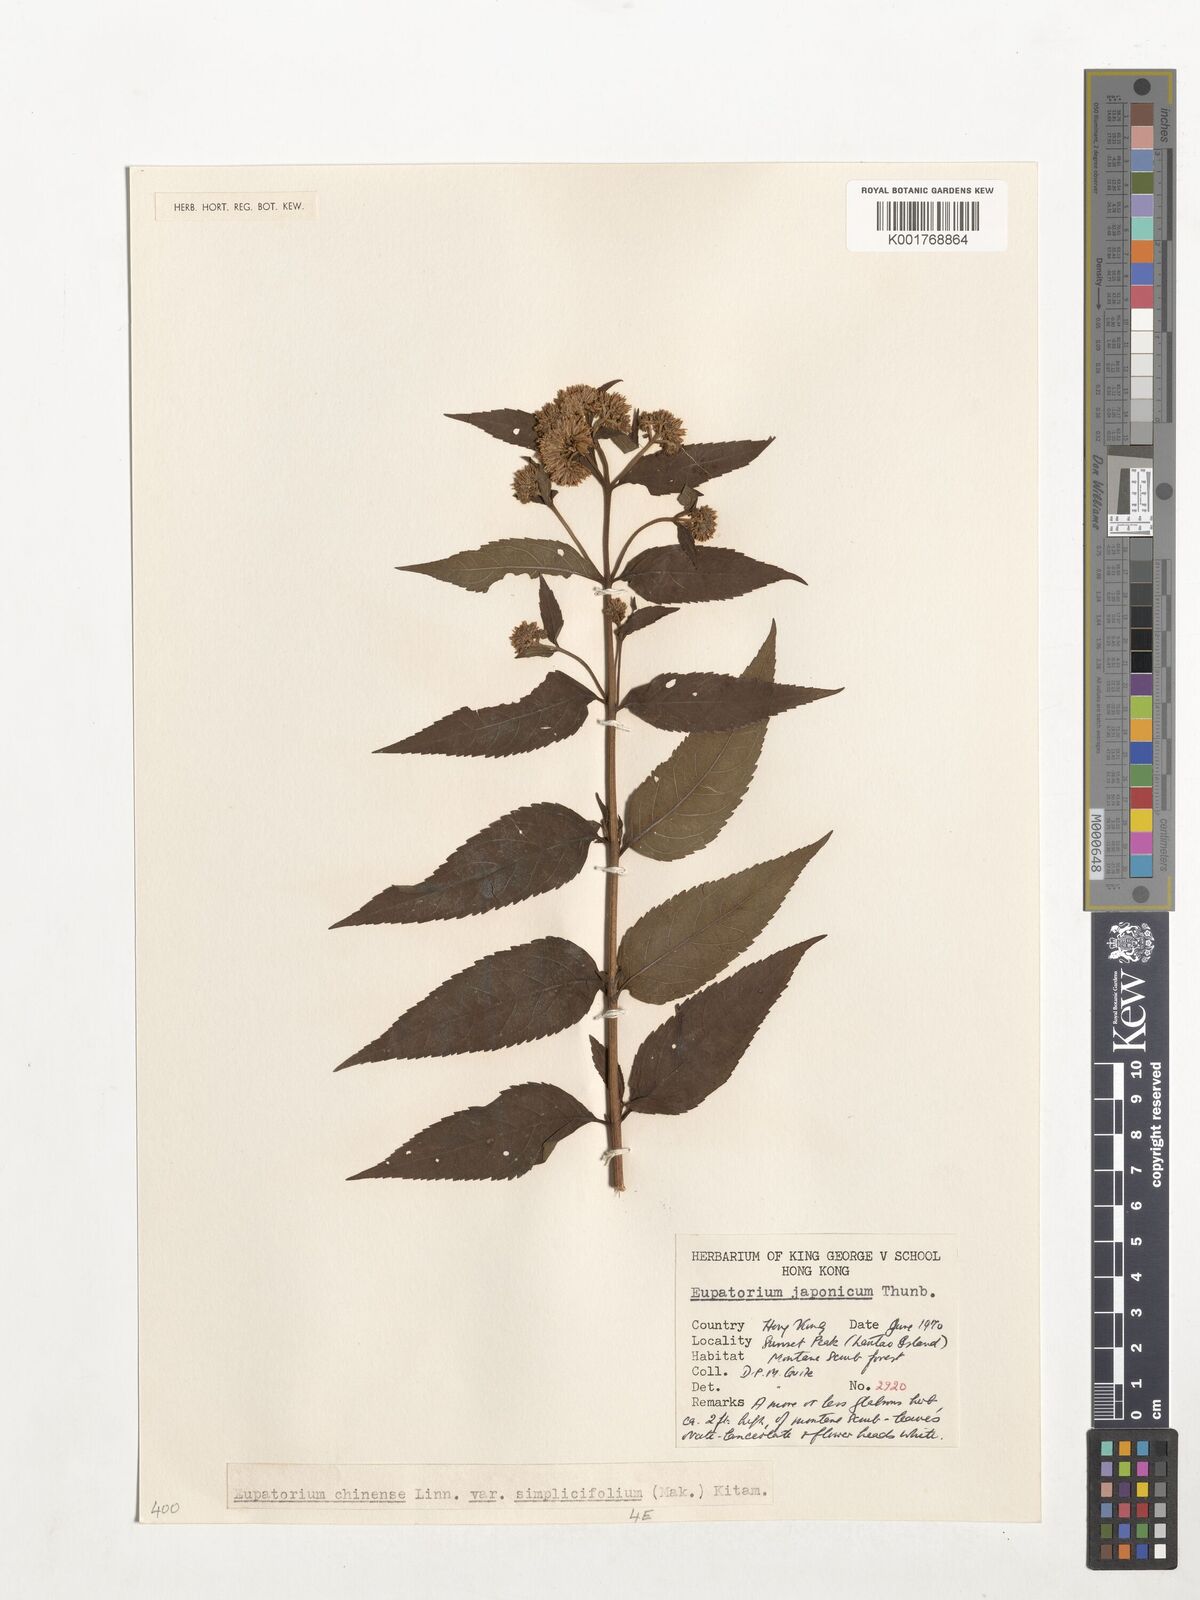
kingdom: Plantae
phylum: Tracheophyta
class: Magnoliopsida
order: Asterales
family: Asteraceae
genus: Eupatorium
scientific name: Eupatorium chinense
